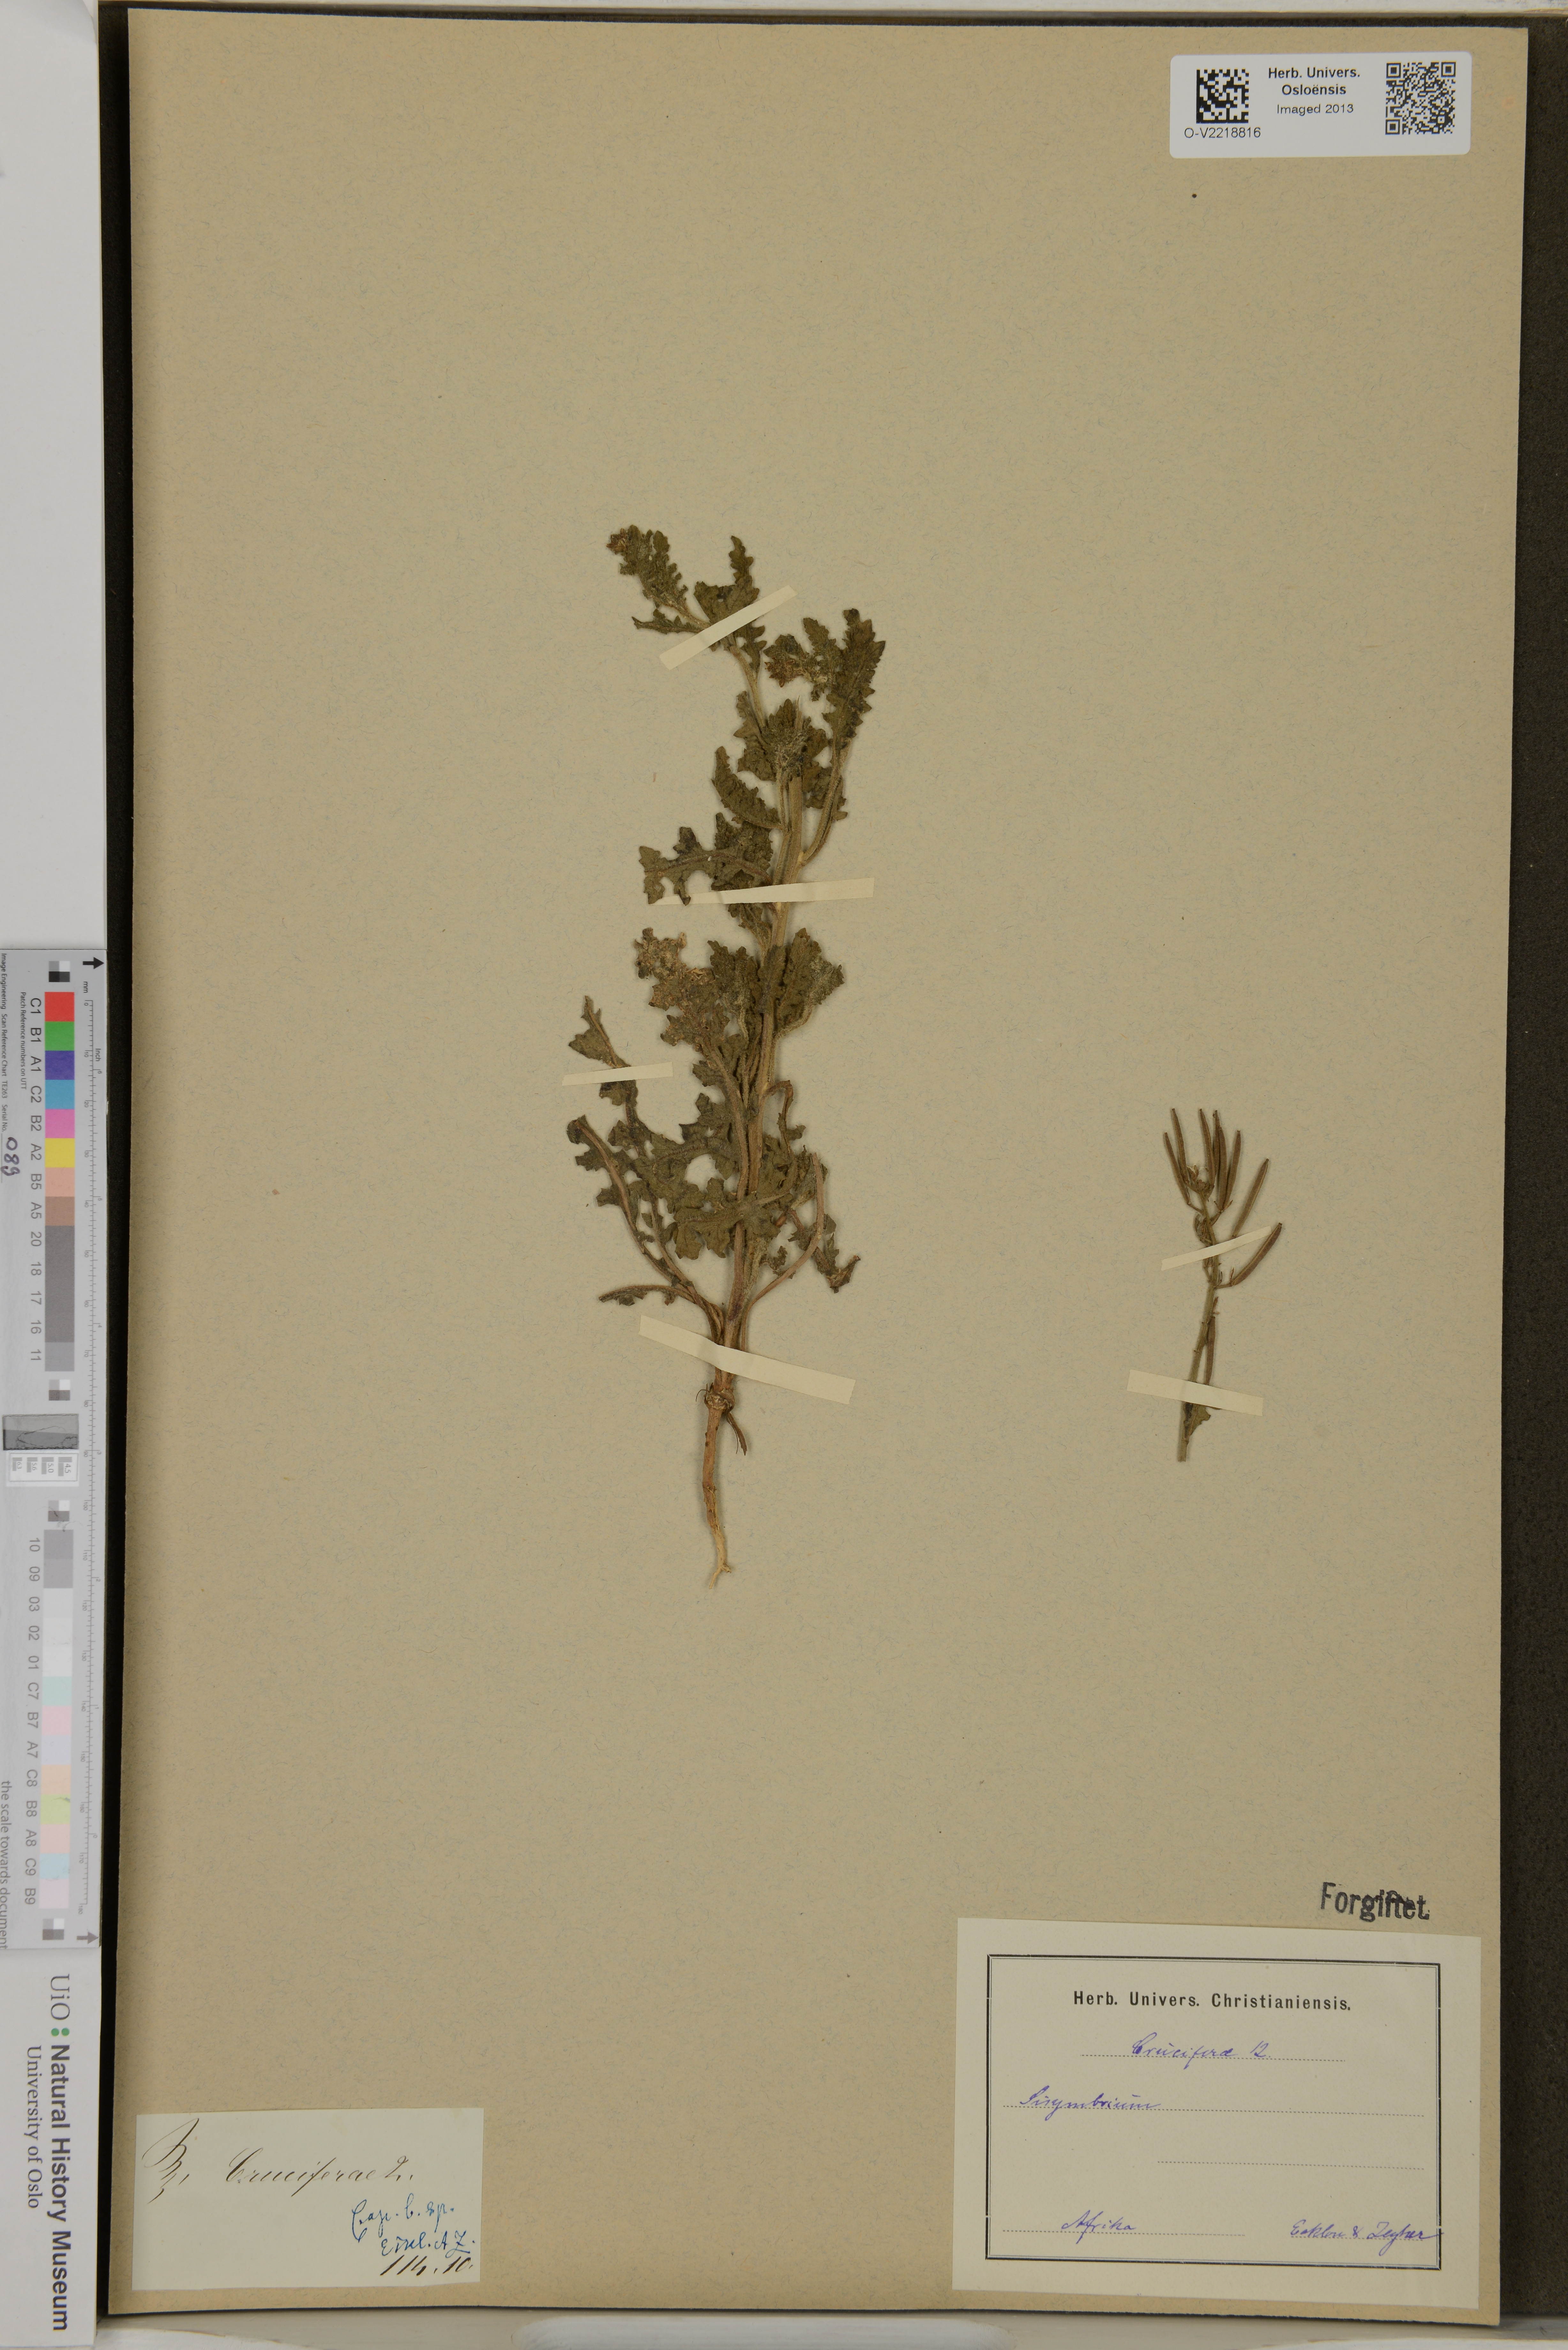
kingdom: Plantae
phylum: Tracheophyta
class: Magnoliopsida
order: Brassicales
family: Brassicaceae
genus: Sisymbrium
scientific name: Sisymbrium
